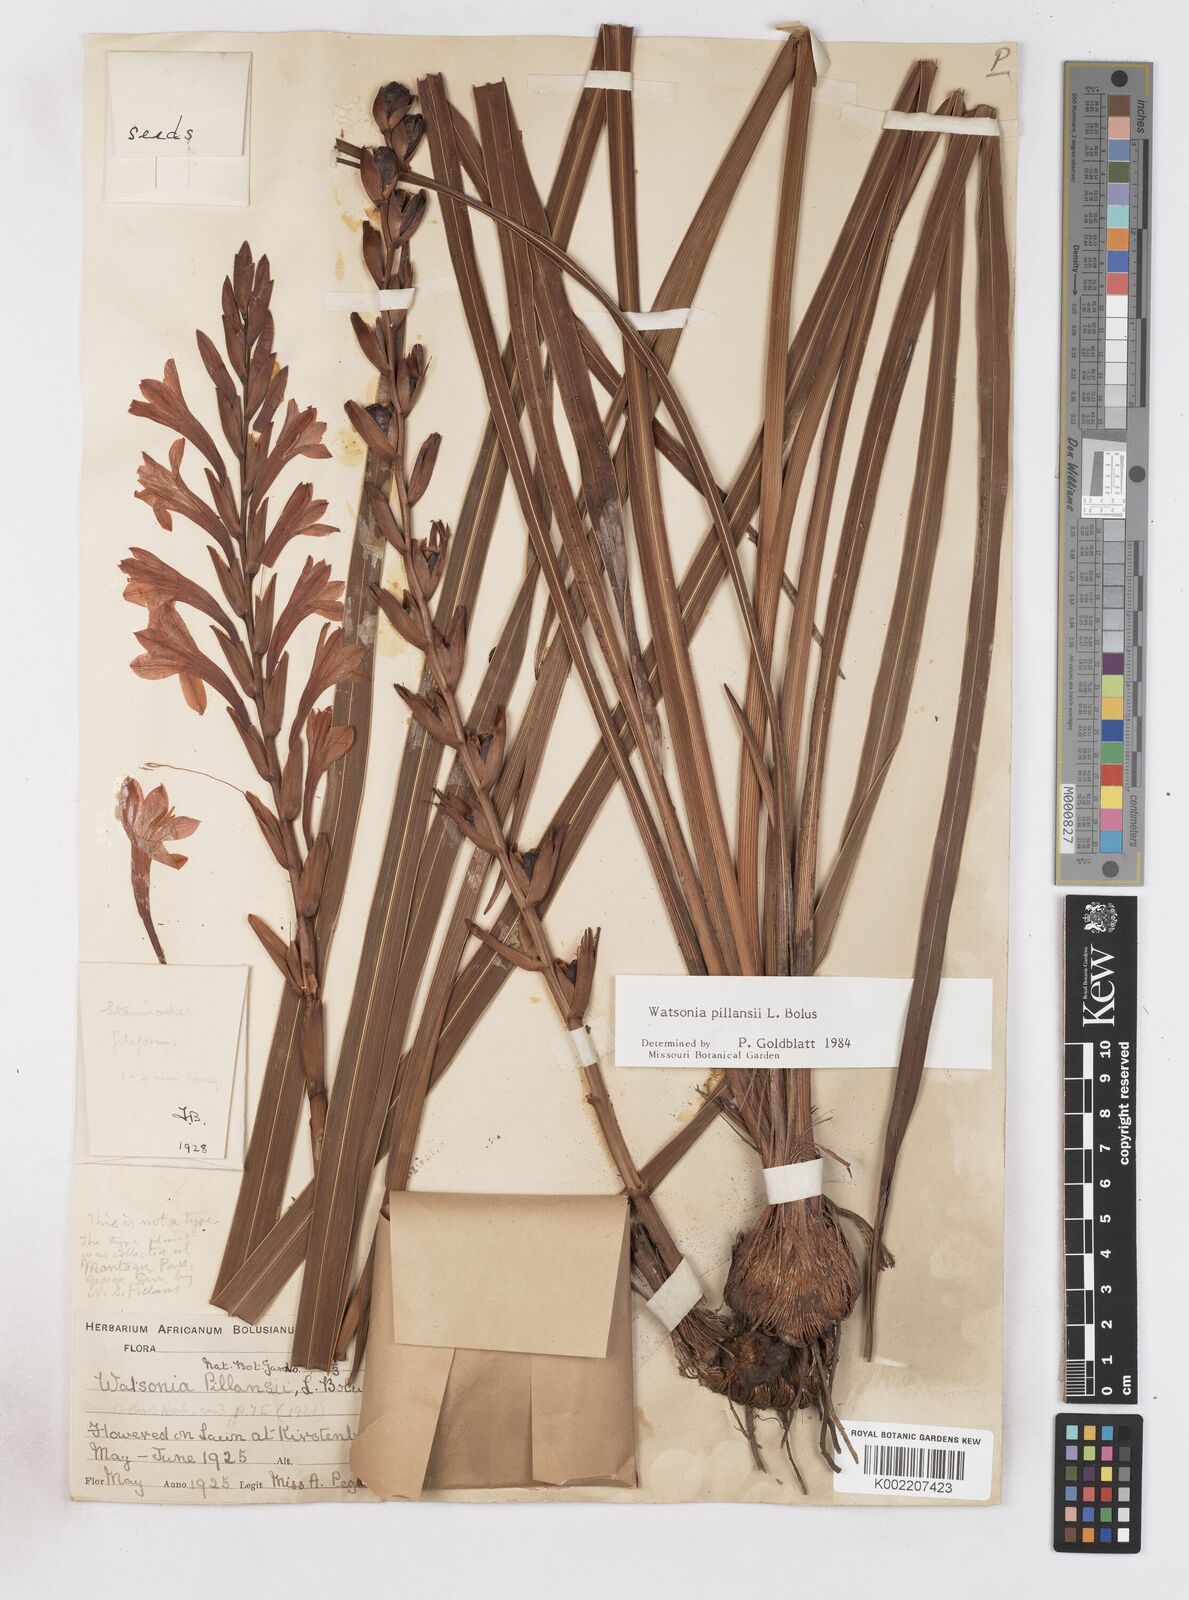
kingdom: Plantae
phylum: Tracheophyta
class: Liliopsida
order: Asparagales
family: Iridaceae
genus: Watsonia
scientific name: Watsonia pillansii
